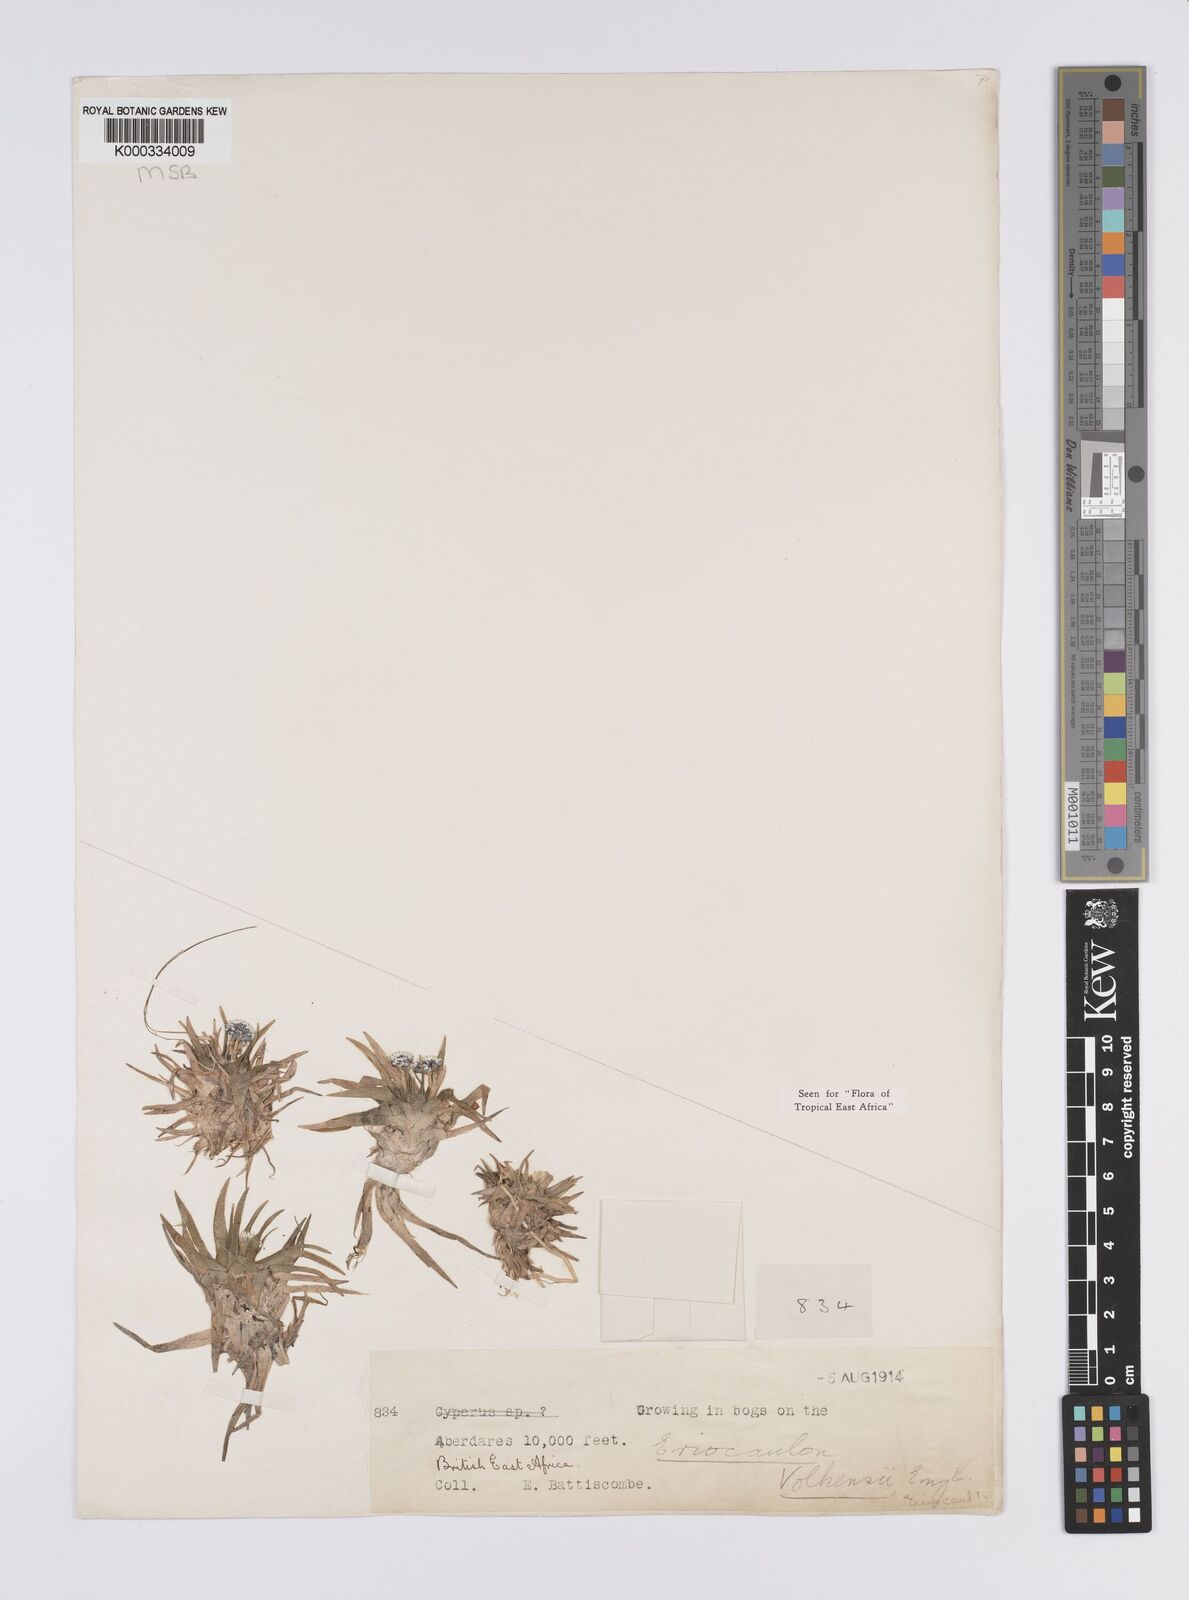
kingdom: Plantae
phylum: Tracheophyta
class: Liliopsida
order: Poales
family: Eriocaulaceae
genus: Eriocaulon
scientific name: Eriocaulon volkensii
